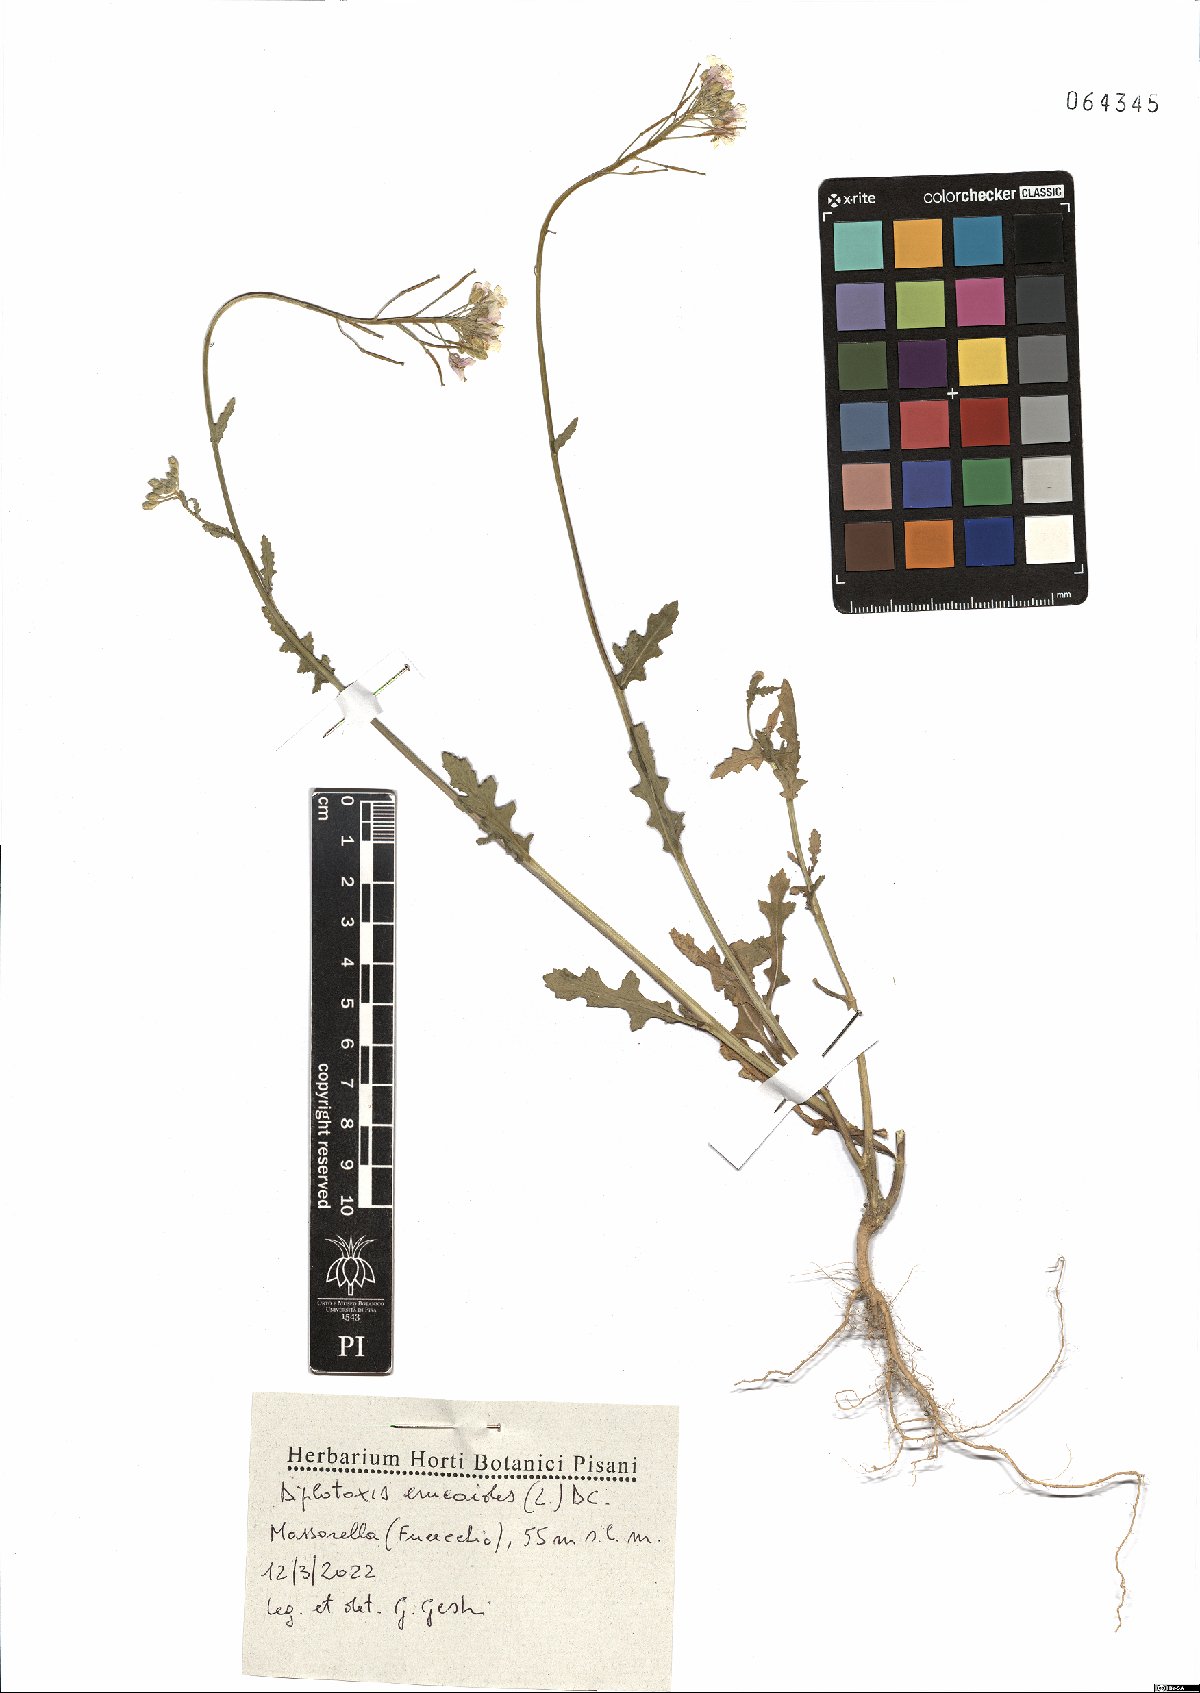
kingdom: Plantae
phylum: Tracheophyta
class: Magnoliopsida
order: Brassicales
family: Brassicaceae
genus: Diplotaxis
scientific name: Diplotaxis erucoides
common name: White rocket
